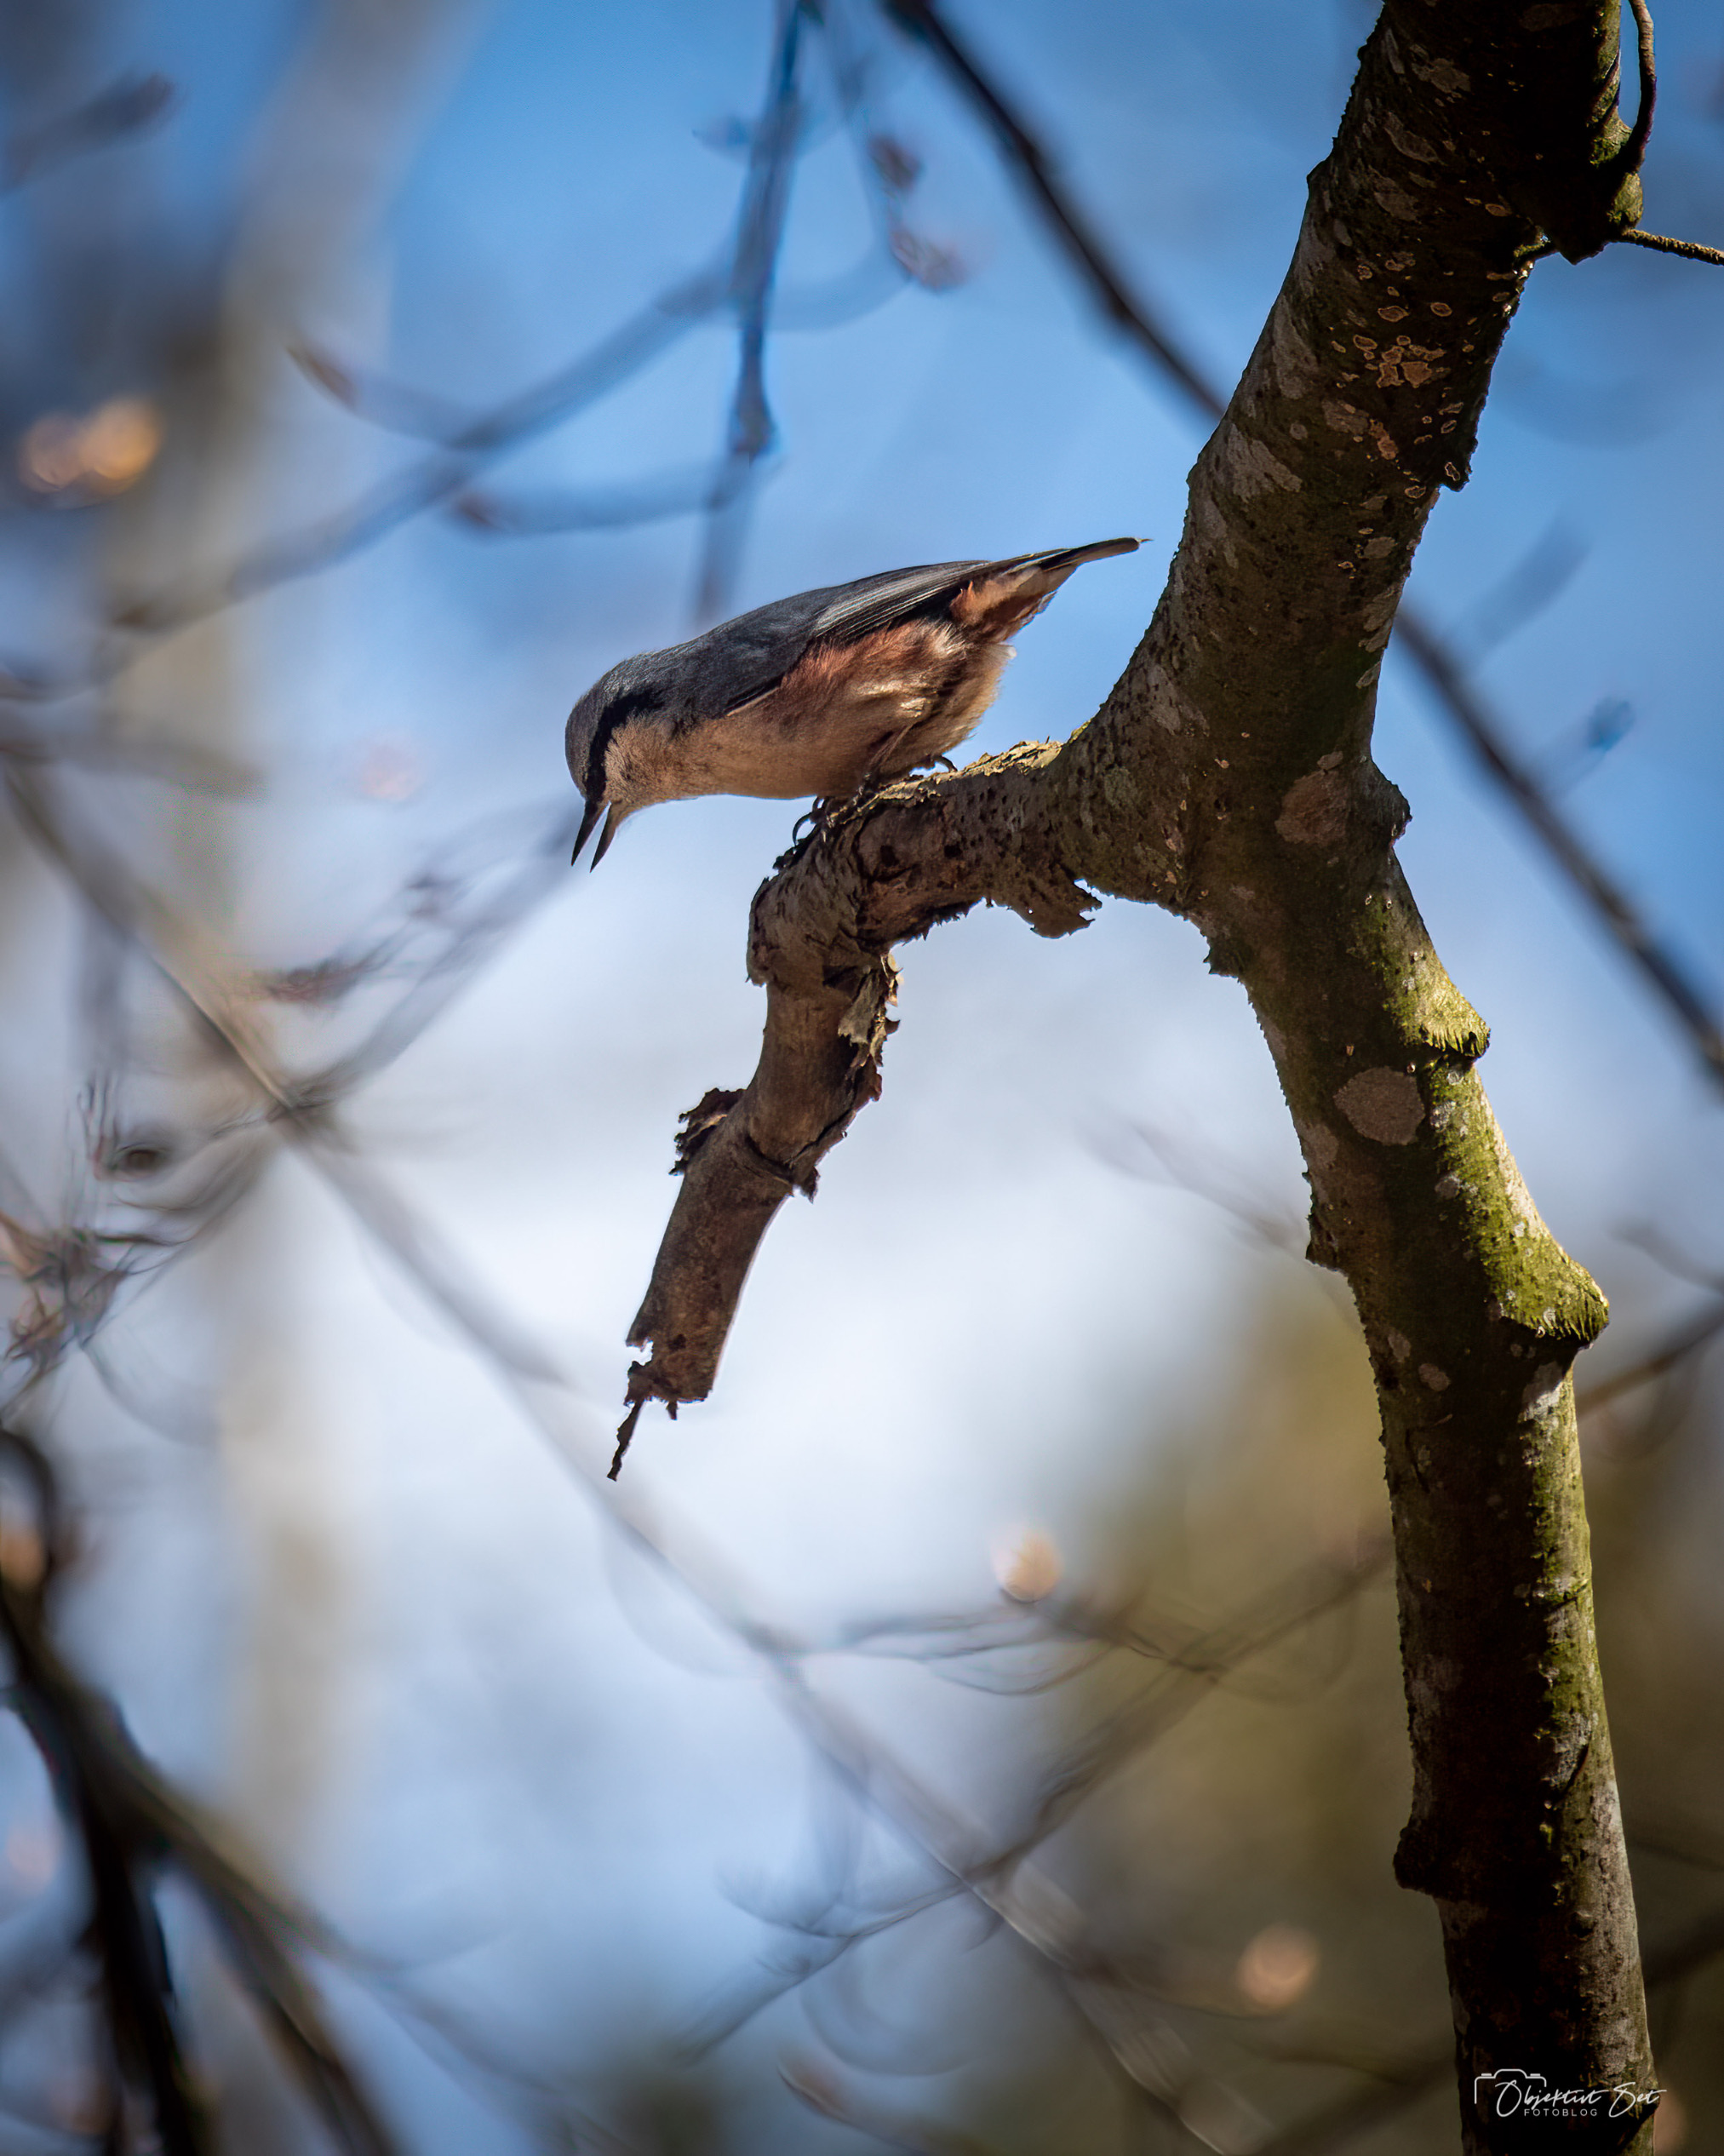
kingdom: Animalia
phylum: Chordata
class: Aves
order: Passeriformes
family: Sittidae
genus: Sitta
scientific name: Sitta europaea
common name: Spætmejse
